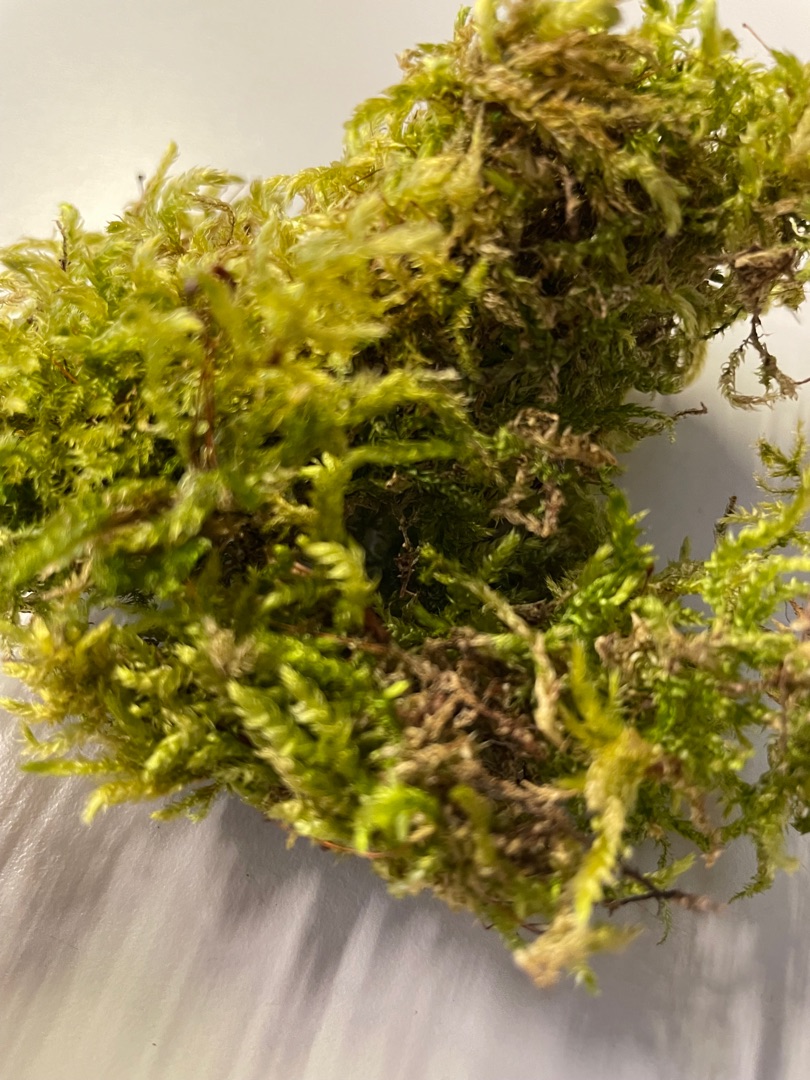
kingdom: Plantae
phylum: Bryophyta
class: Bryopsida
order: Hypnales
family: Brachytheciaceae
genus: Brachythecium
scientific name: Brachythecium rutabulum
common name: Almindelig kortkapsel
